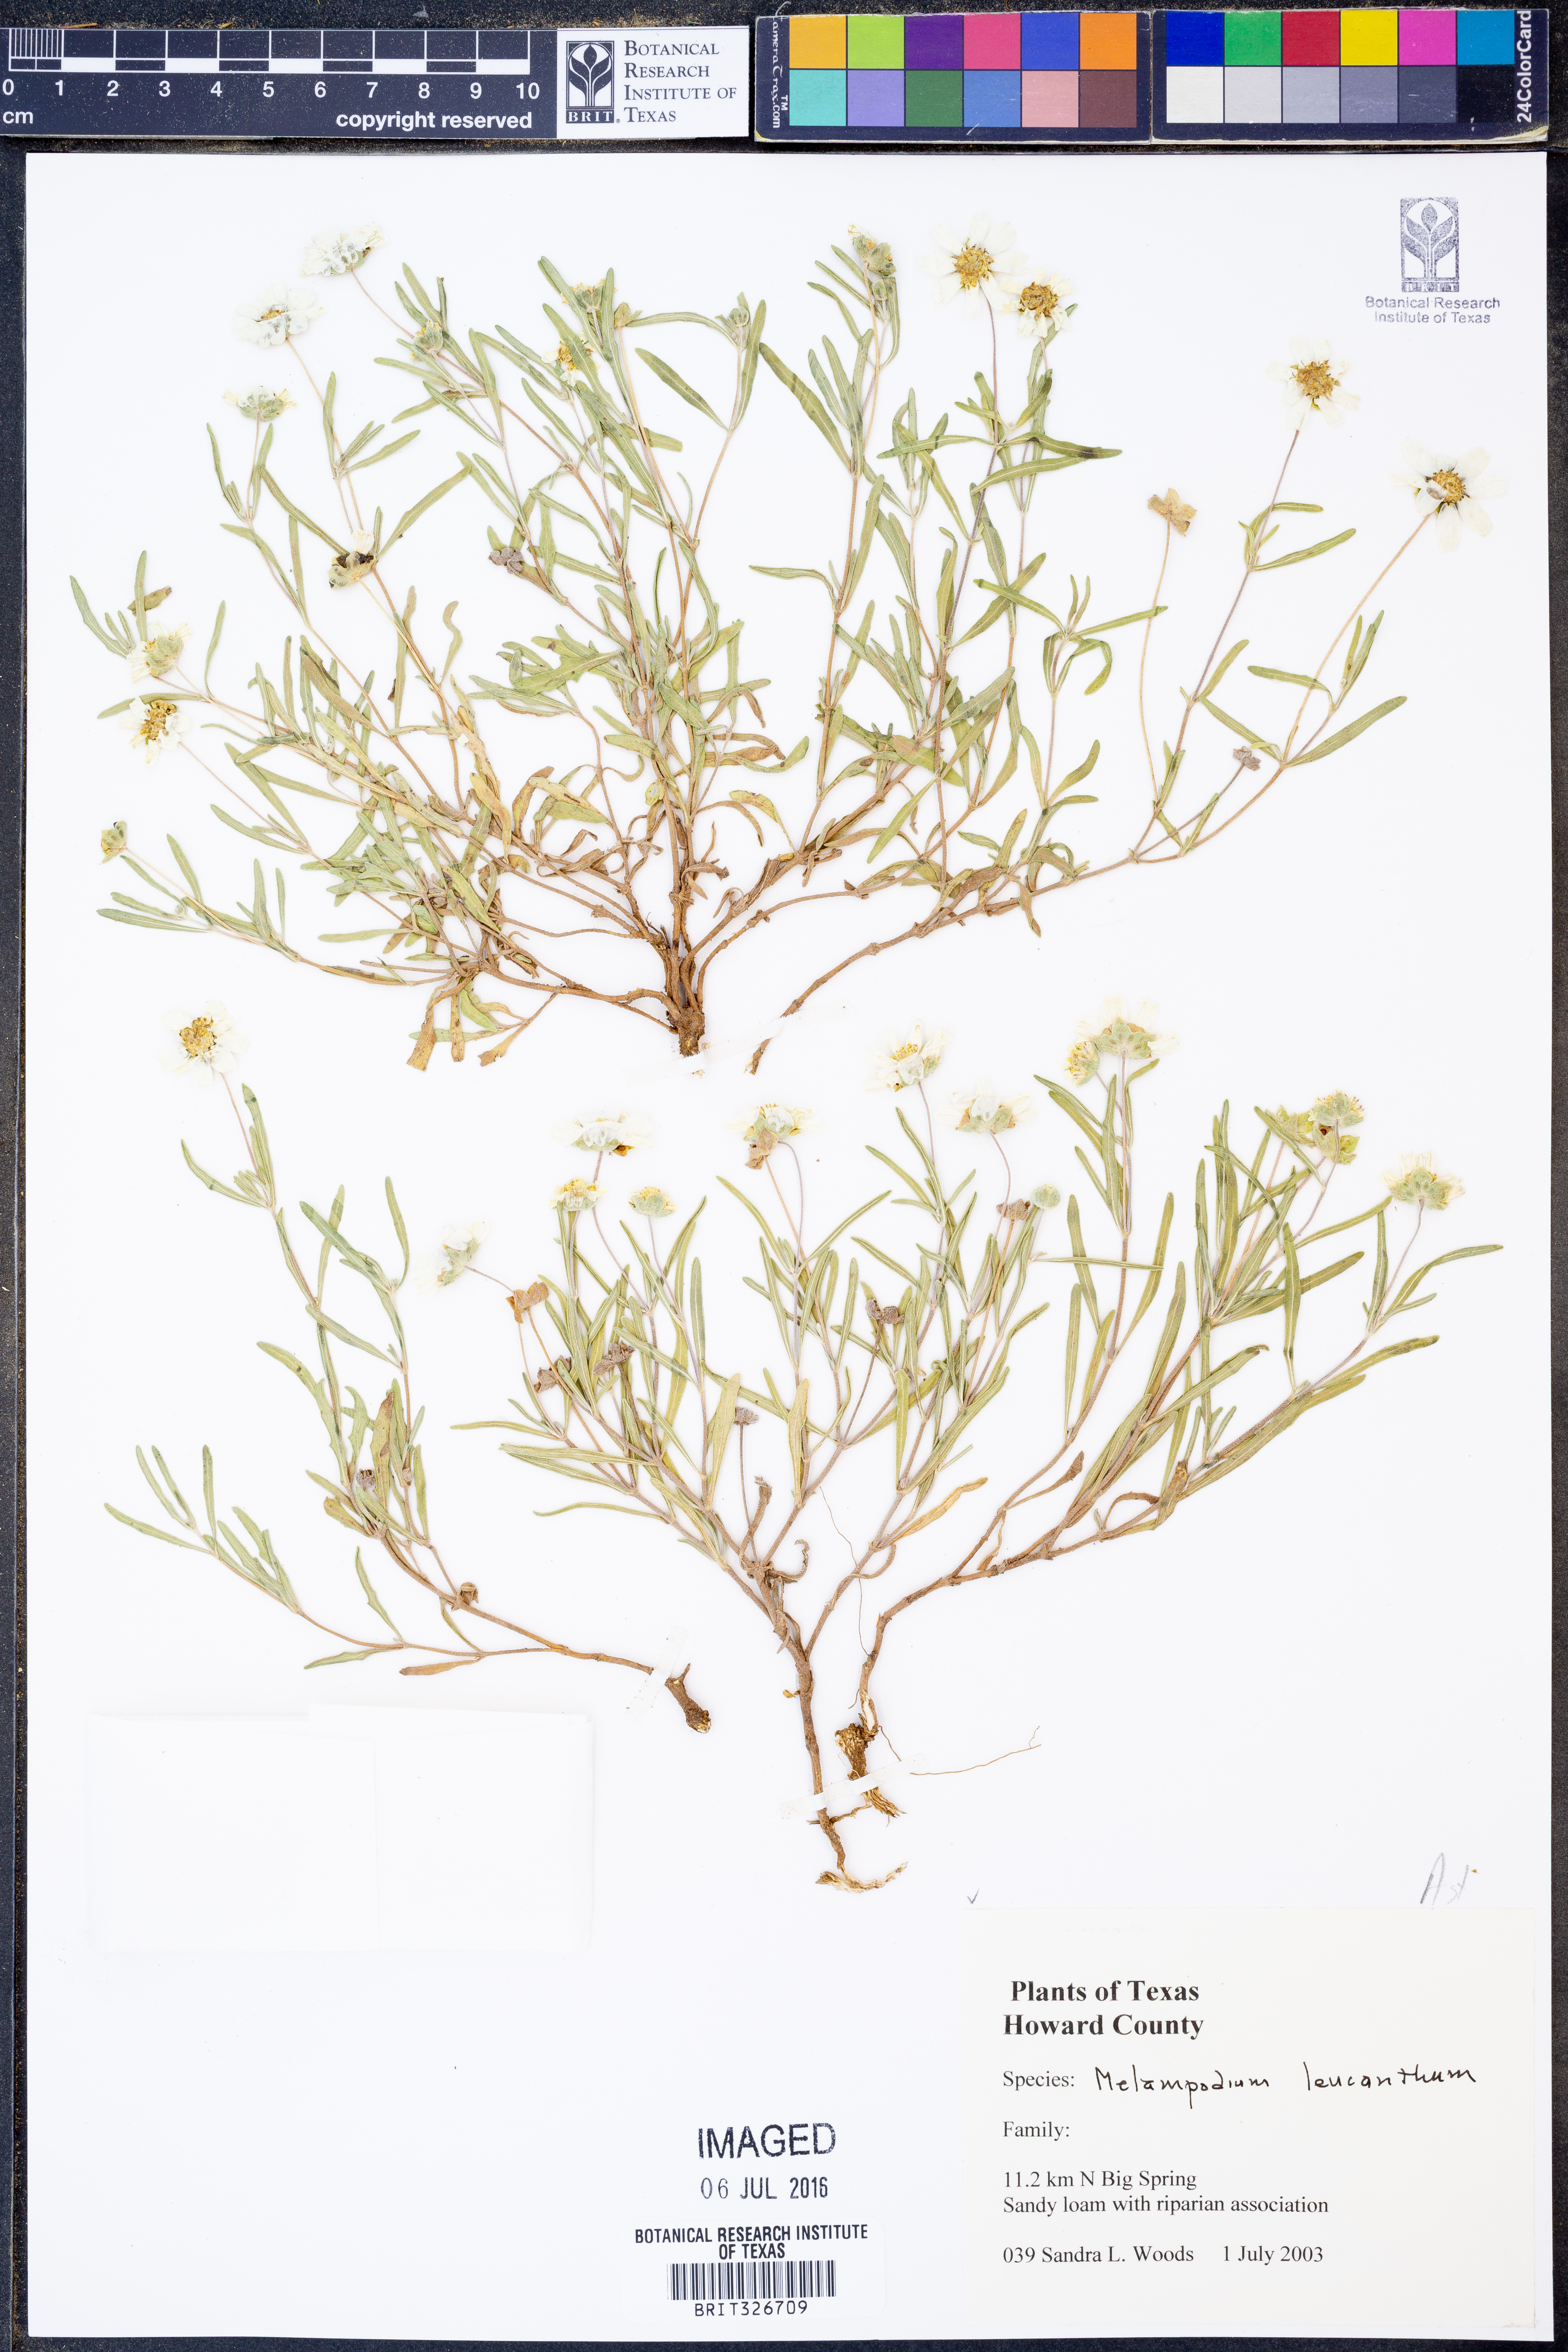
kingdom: Plantae
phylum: Tracheophyta
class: Magnoliopsida
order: Asterales
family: Asteraceae
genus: Melampodium
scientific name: Melampodium leucanthum
